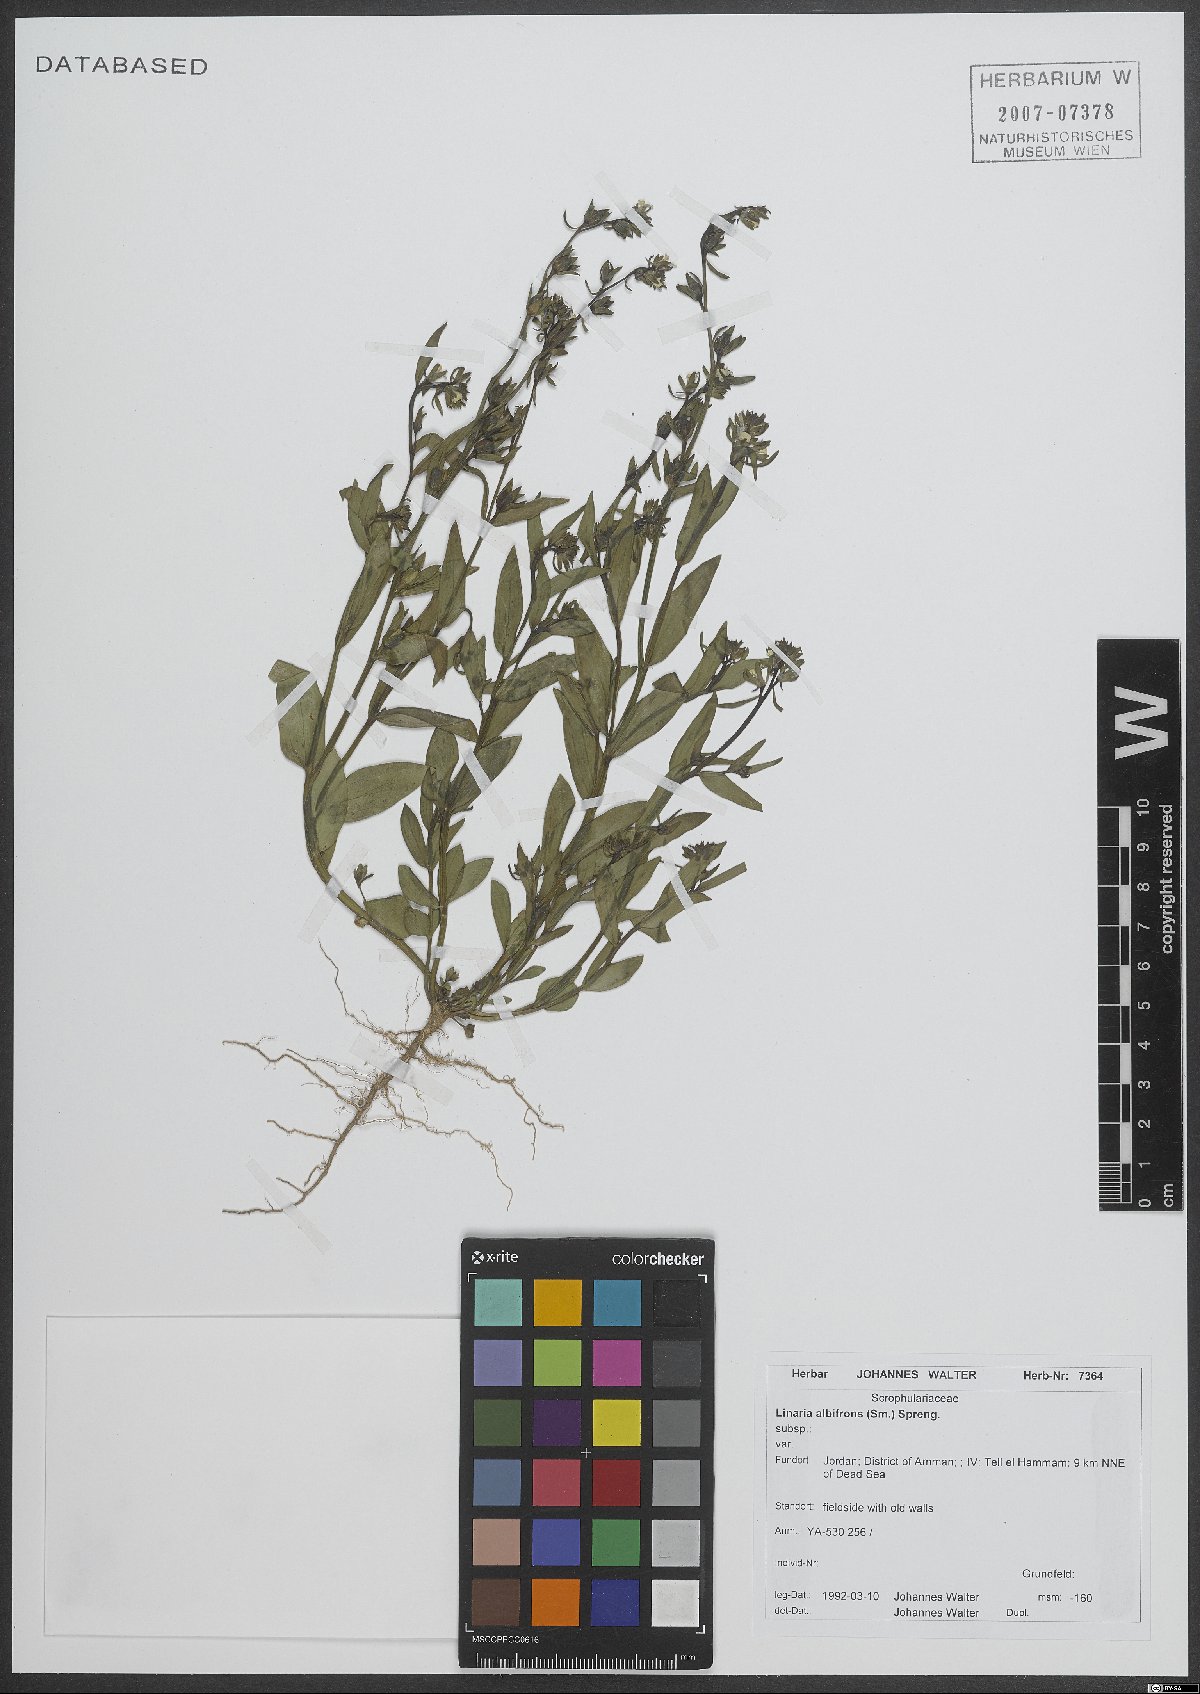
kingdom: Plantae
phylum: Tracheophyta
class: Magnoliopsida
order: Lamiales
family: Plantaginaceae
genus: Linaria
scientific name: Linaria albifrons
